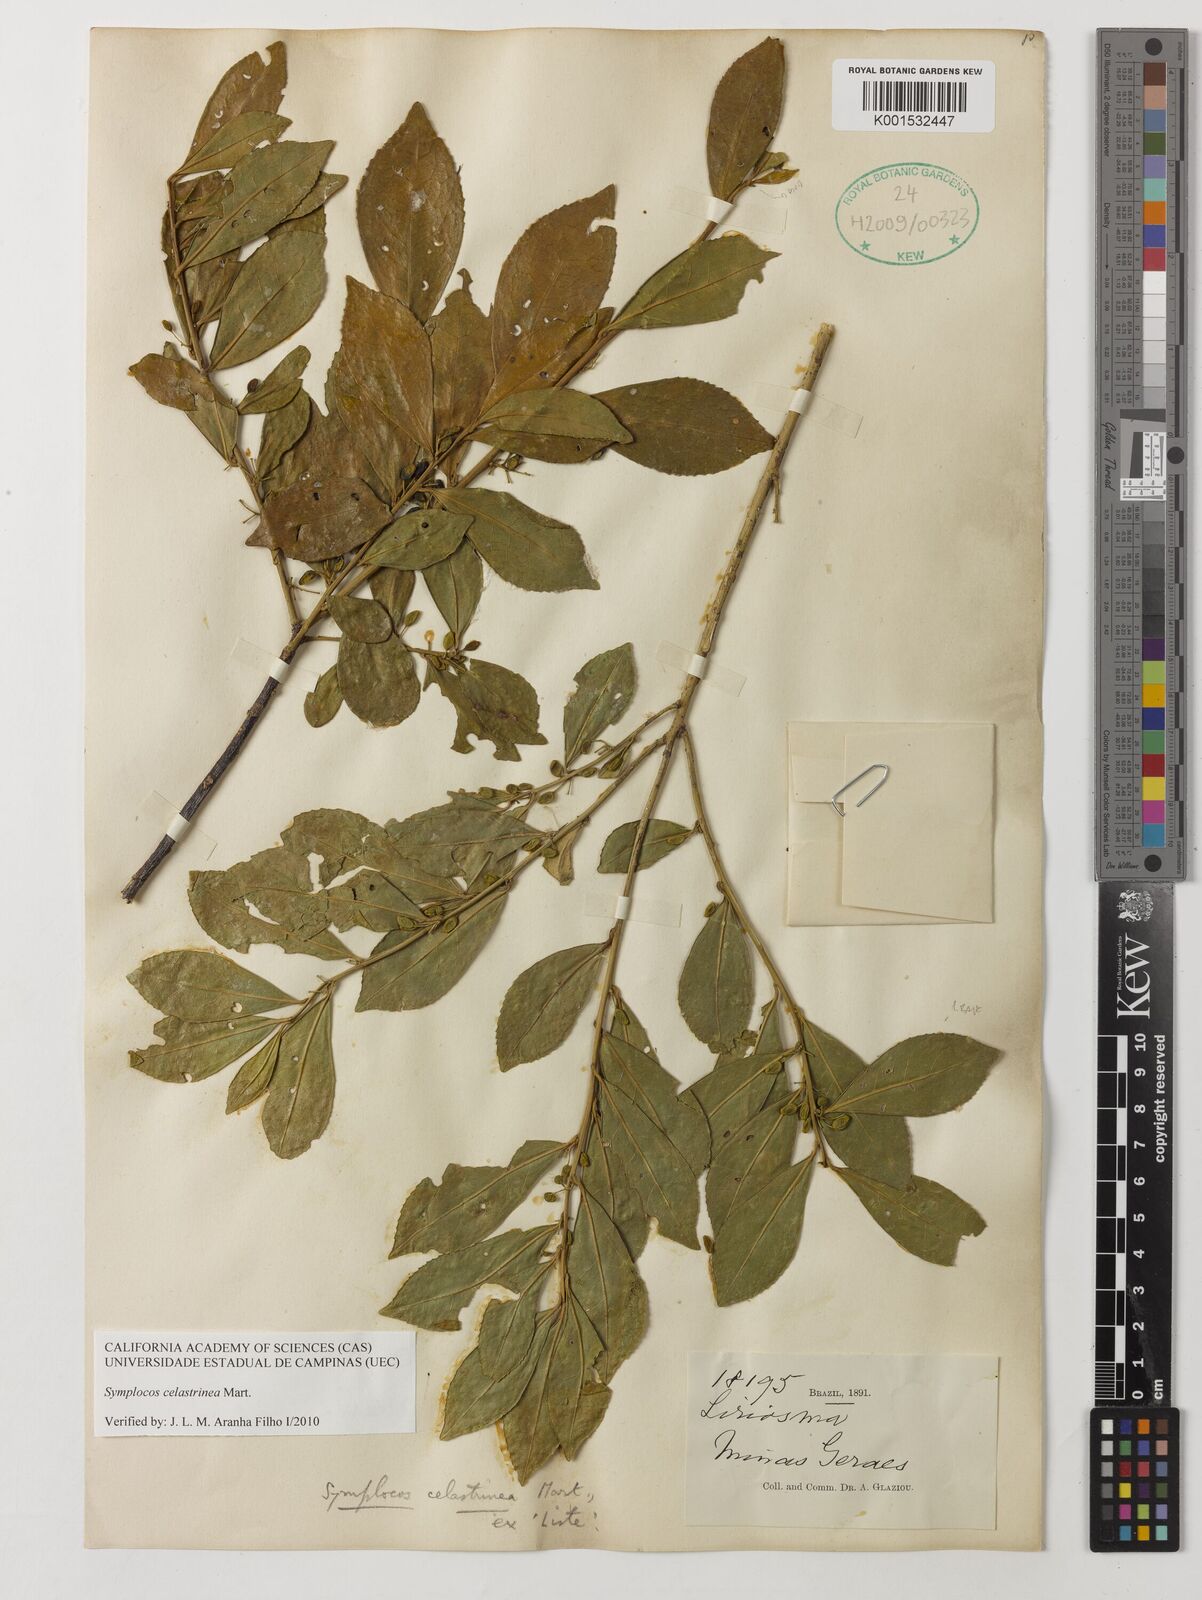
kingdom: Plantae
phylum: Tracheophyta
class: Magnoliopsida
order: Ericales
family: Symplocaceae
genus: Symplocos
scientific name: Symplocos celastrinea
